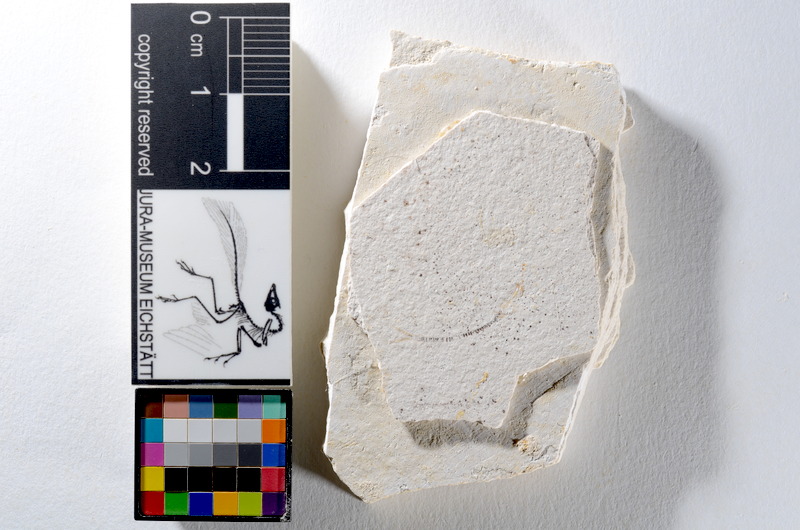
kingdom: Animalia
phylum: Chordata
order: Salmoniformes
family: Orthogonikleithridae
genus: Orthogonikleithrus
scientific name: Orthogonikleithrus hoelli
